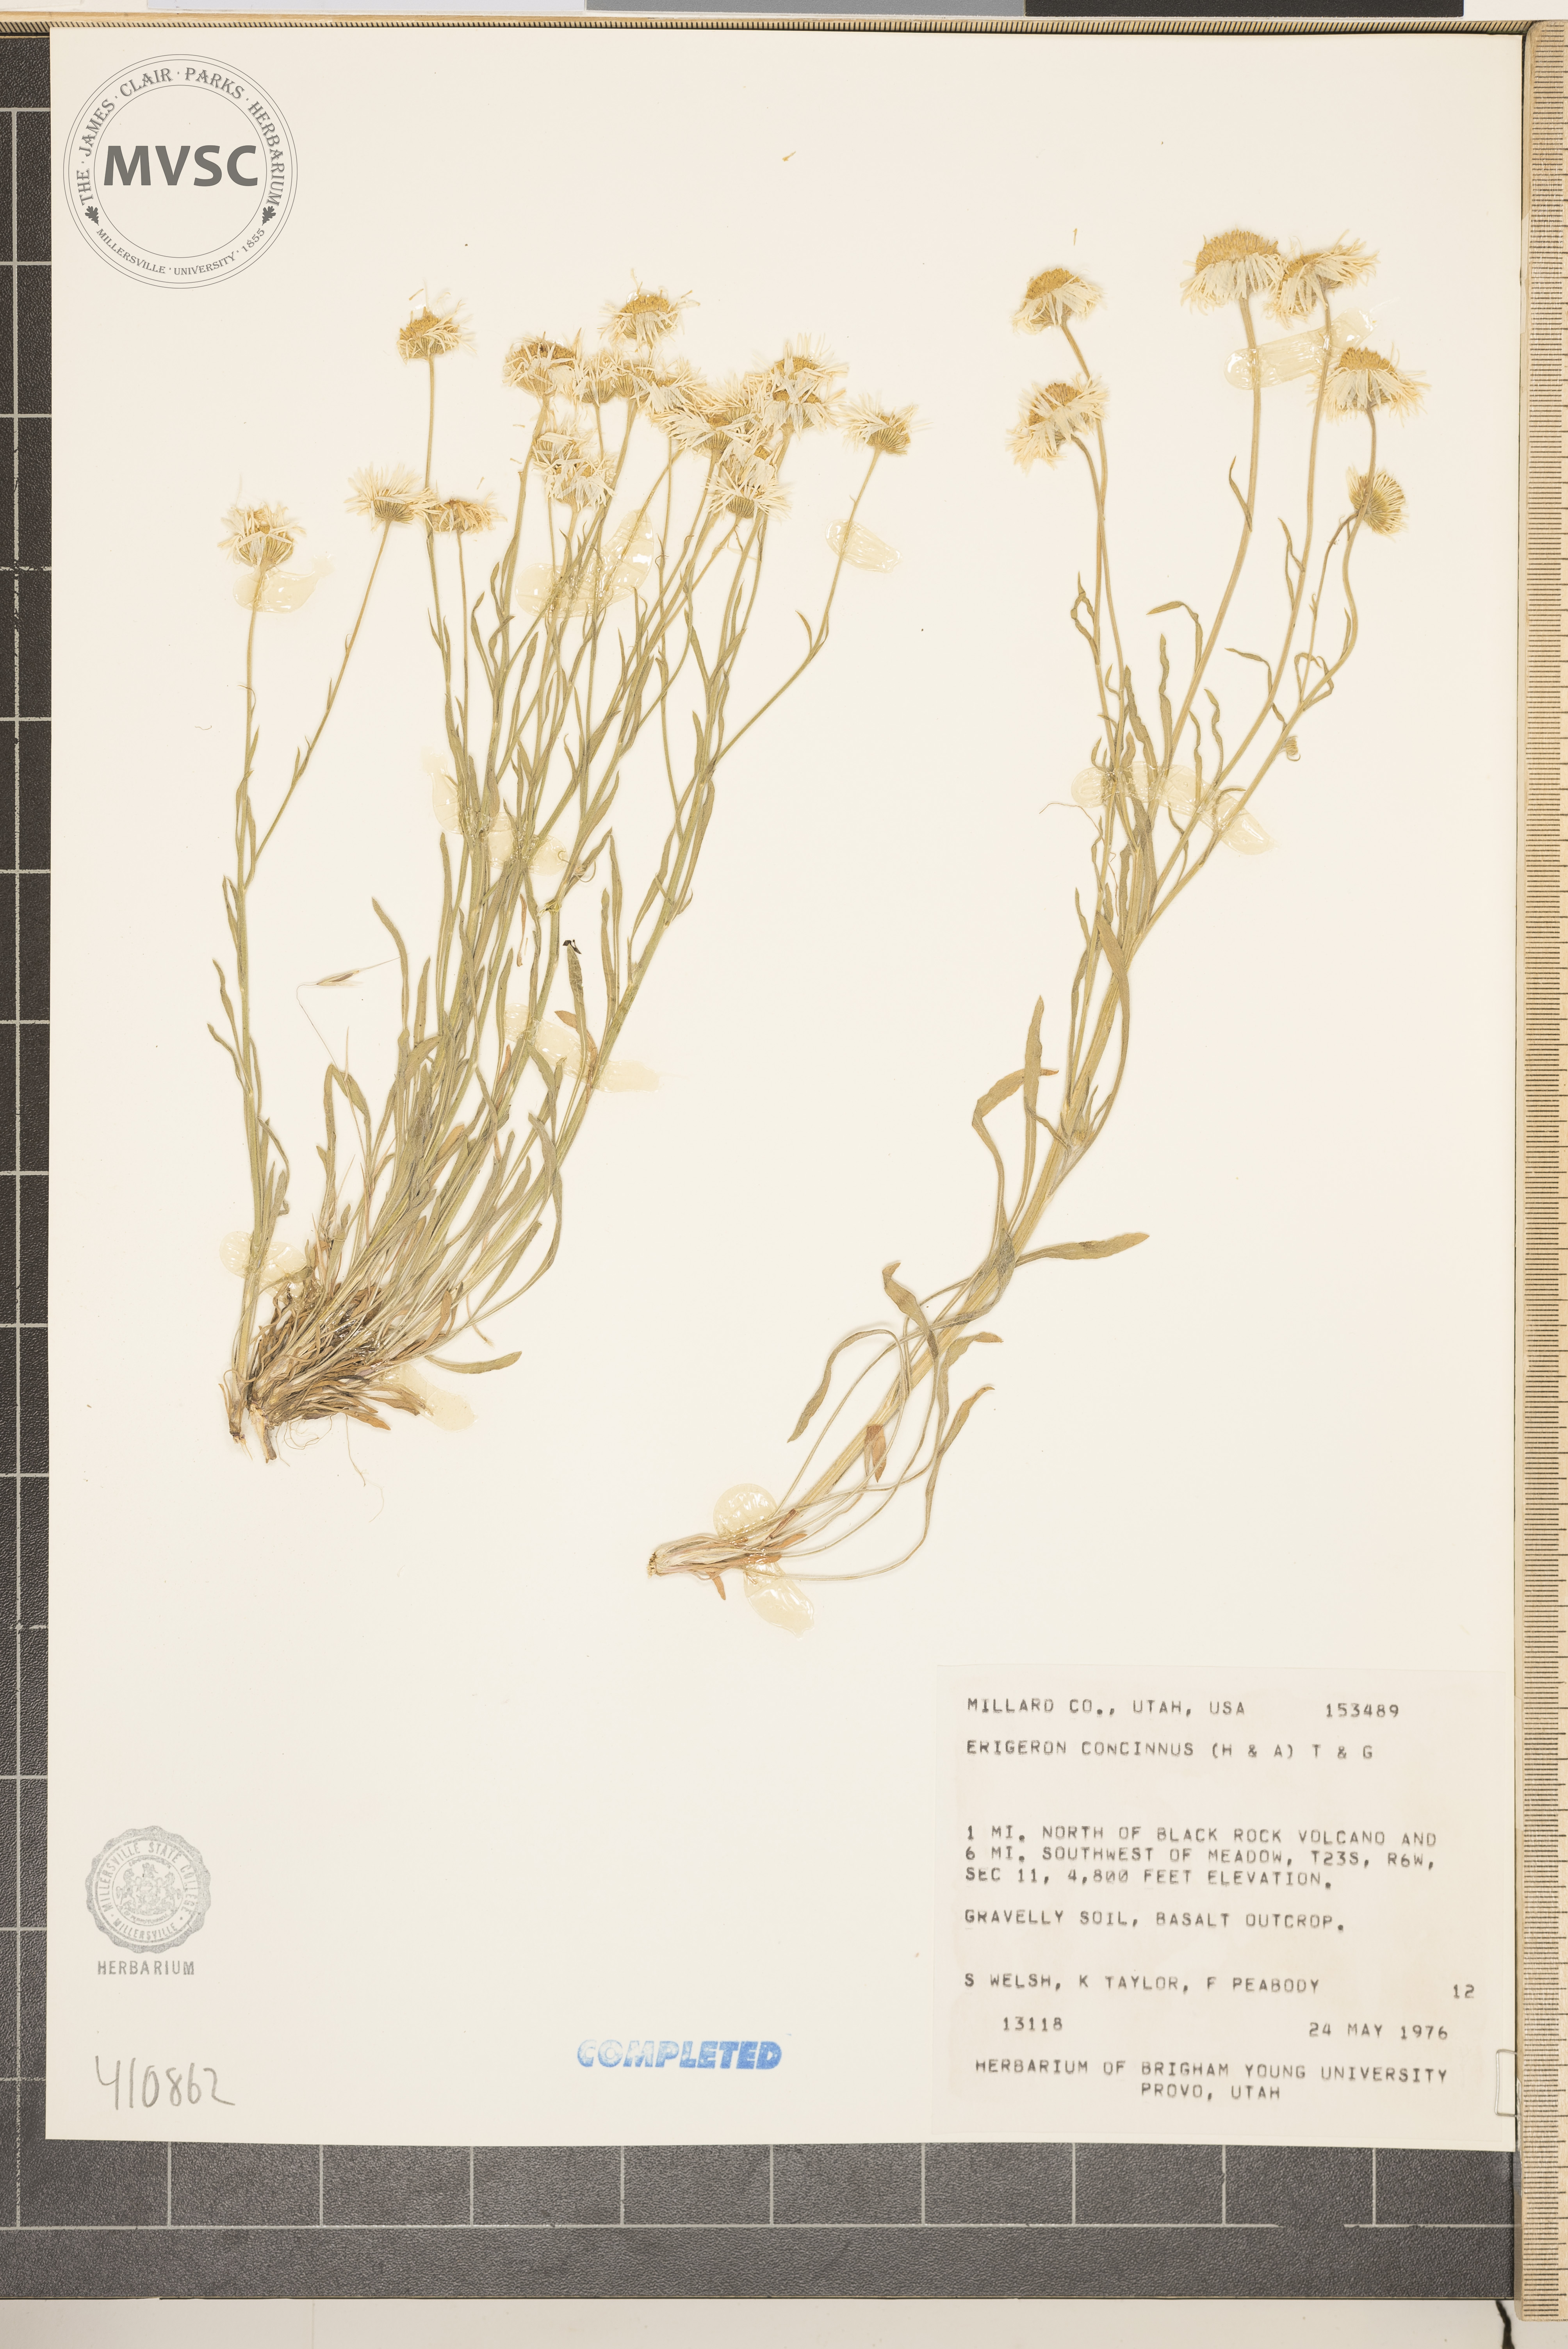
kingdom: Plantae
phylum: Tracheophyta
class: Magnoliopsida
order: Asterales
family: Asteraceae
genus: Erigeron
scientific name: Erigeron concinnus
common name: Navajo fleabane
